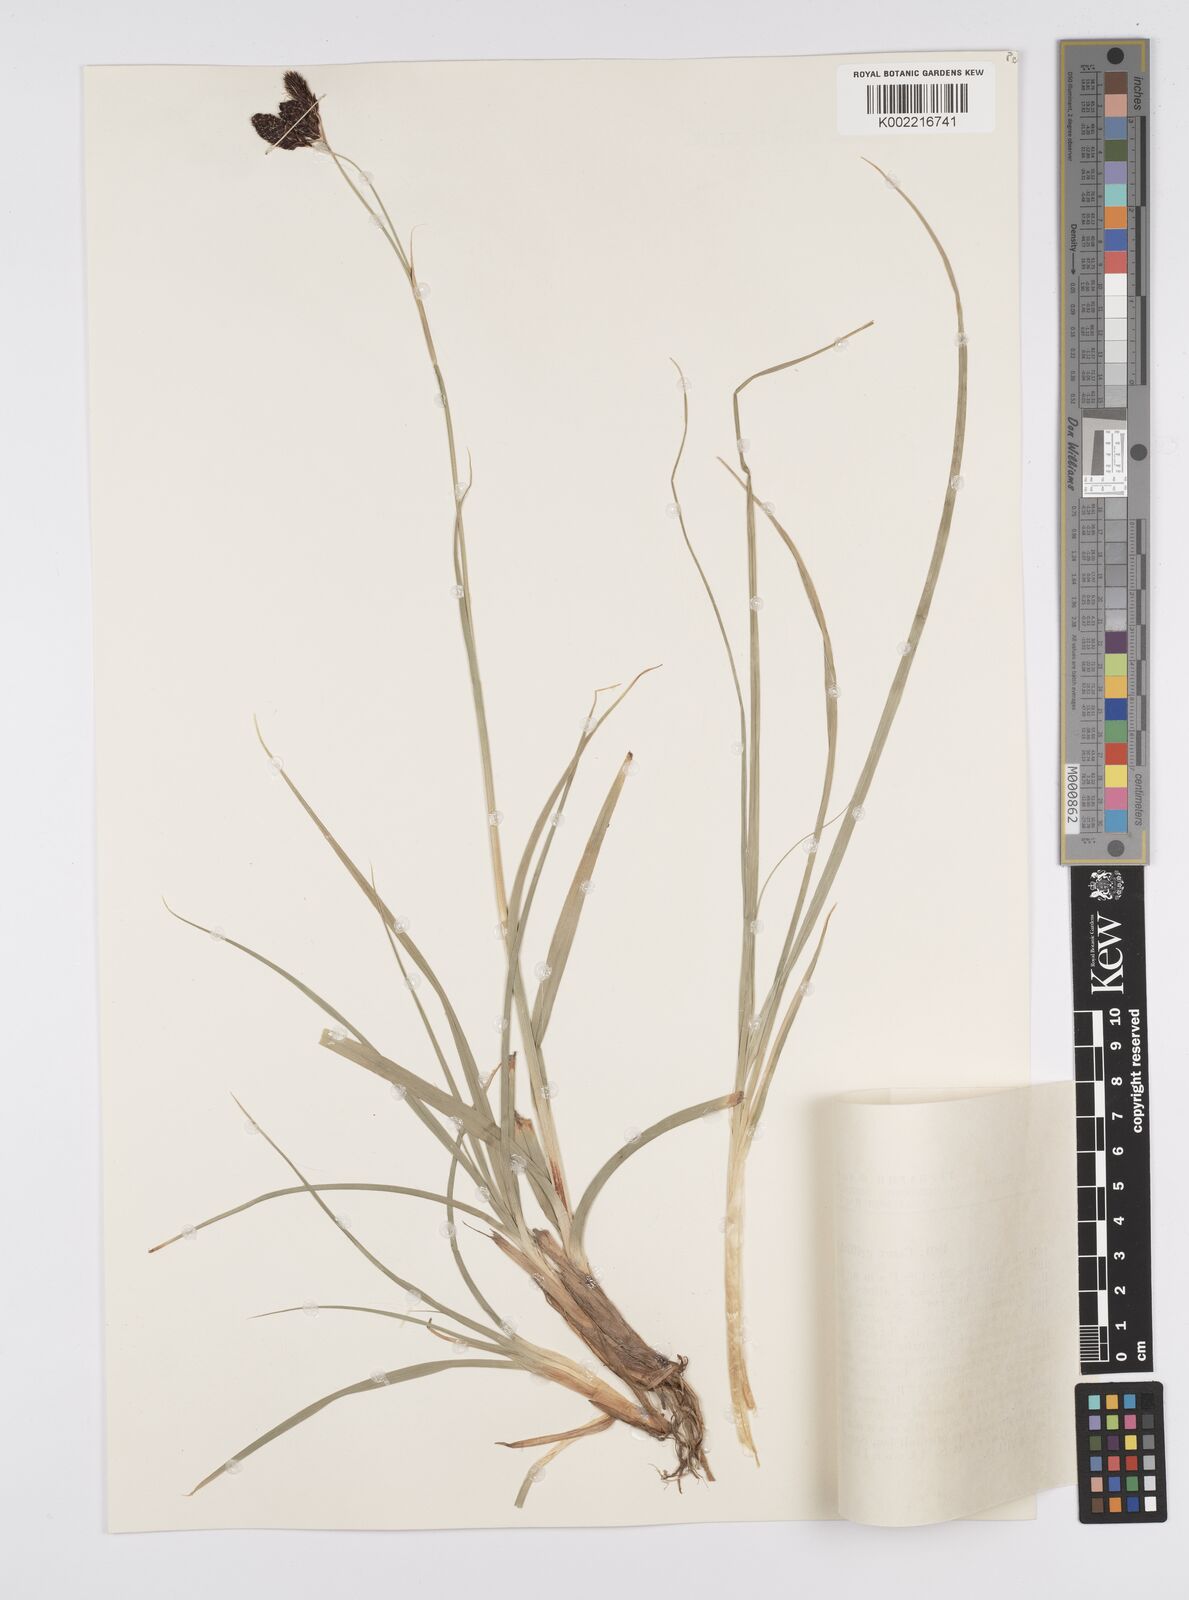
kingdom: Plantae
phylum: Tracheophyta
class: Liliopsida
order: Poales
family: Cyperaceae
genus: Carex
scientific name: Carex nivalis
